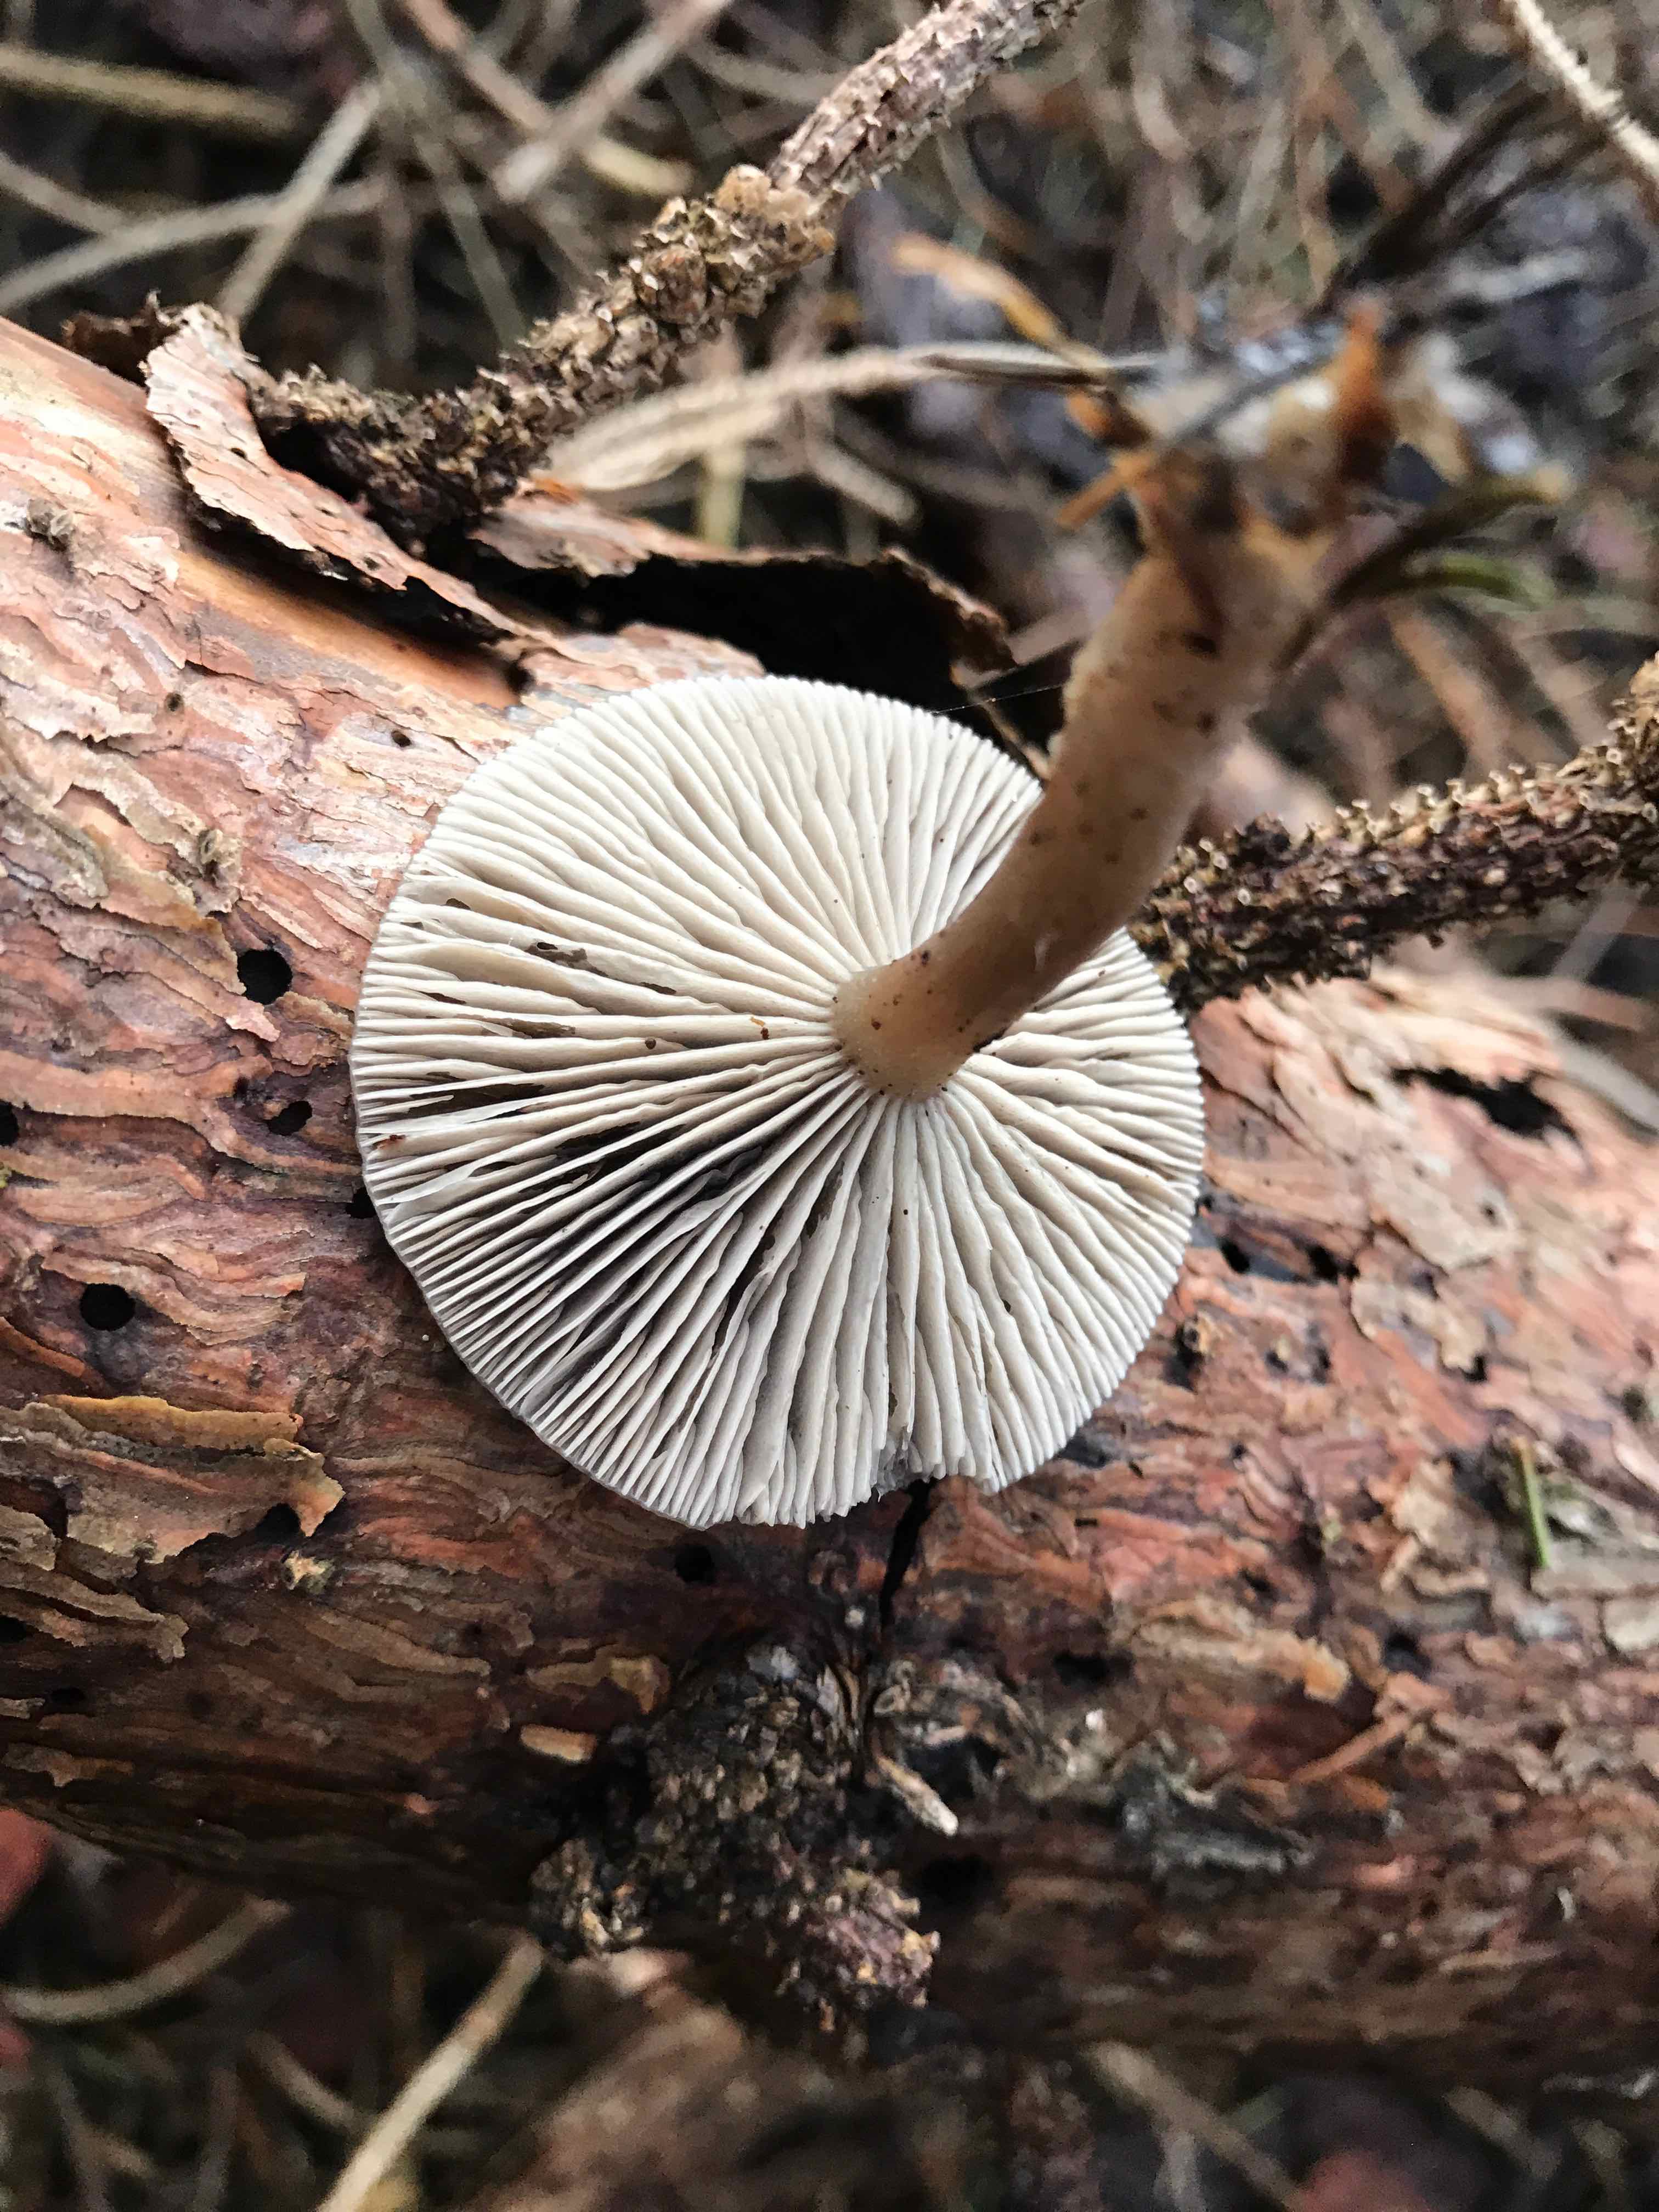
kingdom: Fungi
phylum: Basidiomycota
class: Agaricomycetes
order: Agaricales
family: Tricholomataceae
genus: Clitocybe
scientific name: Clitocybe
